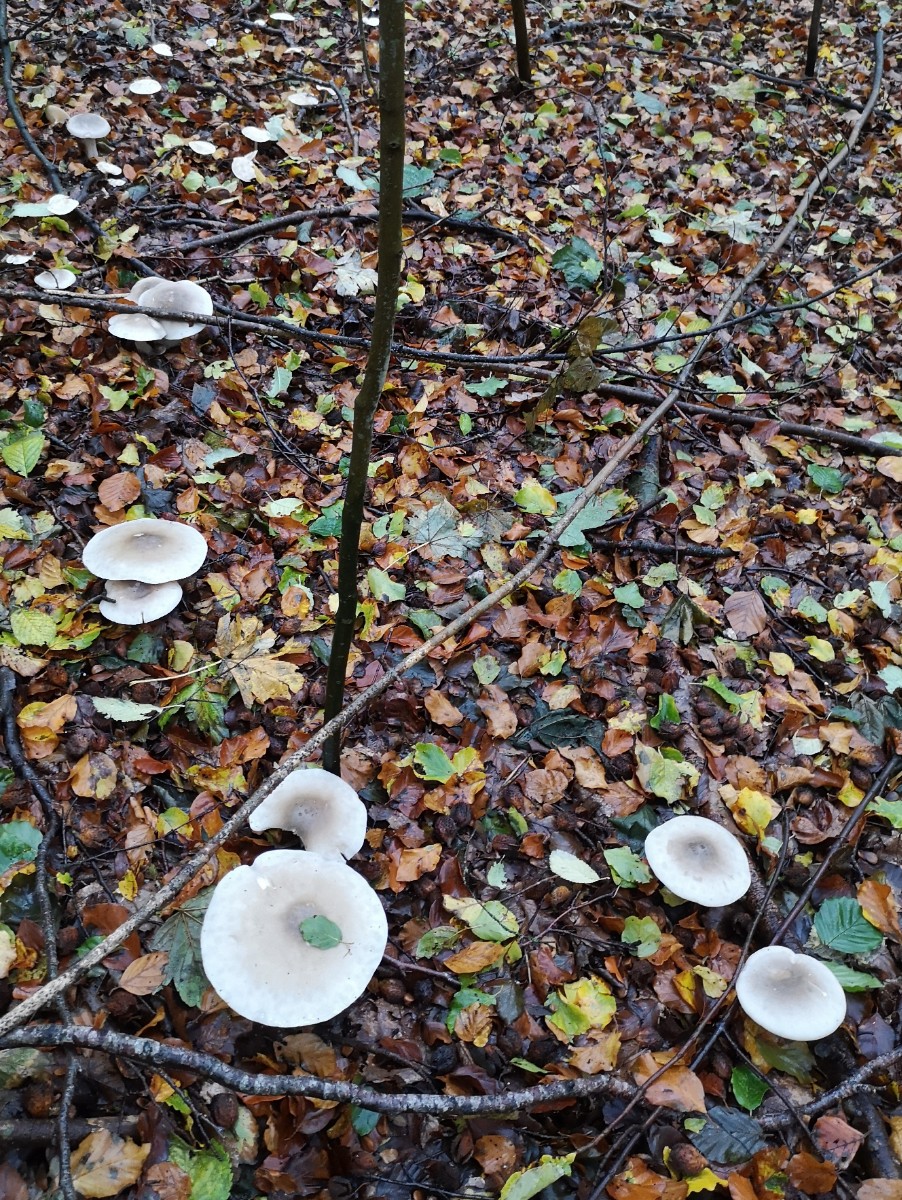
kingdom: Fungi
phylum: Basidiomycota
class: Agaricomycetes
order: Agaricales
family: Tricholomataceae
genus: Clitocybe
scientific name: Clitocybe nebularis
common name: tåge-tragthat
